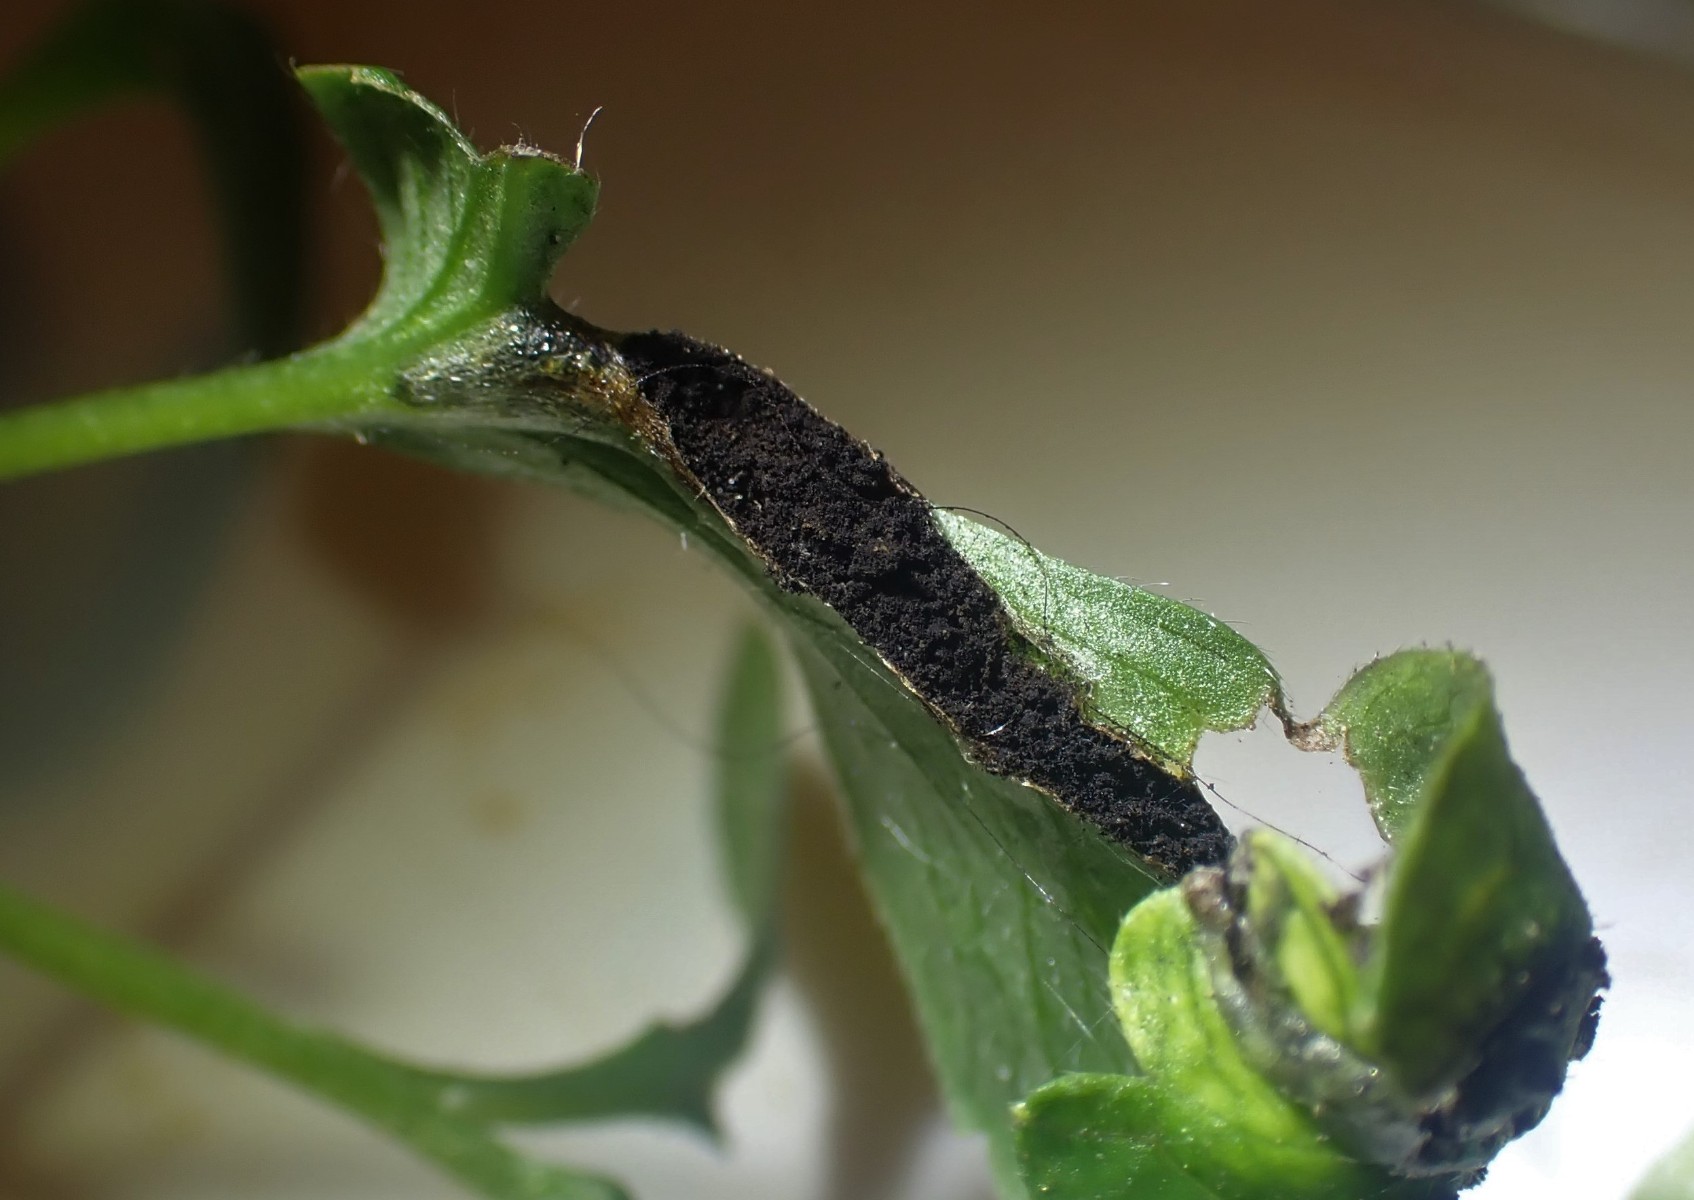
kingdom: Fungi
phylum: Basidiomycota
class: Ustilaginomycetes
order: Urocystidales
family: Urocystidaceae
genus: Urocystis
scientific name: Urocystis anemones
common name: anemone-brand
